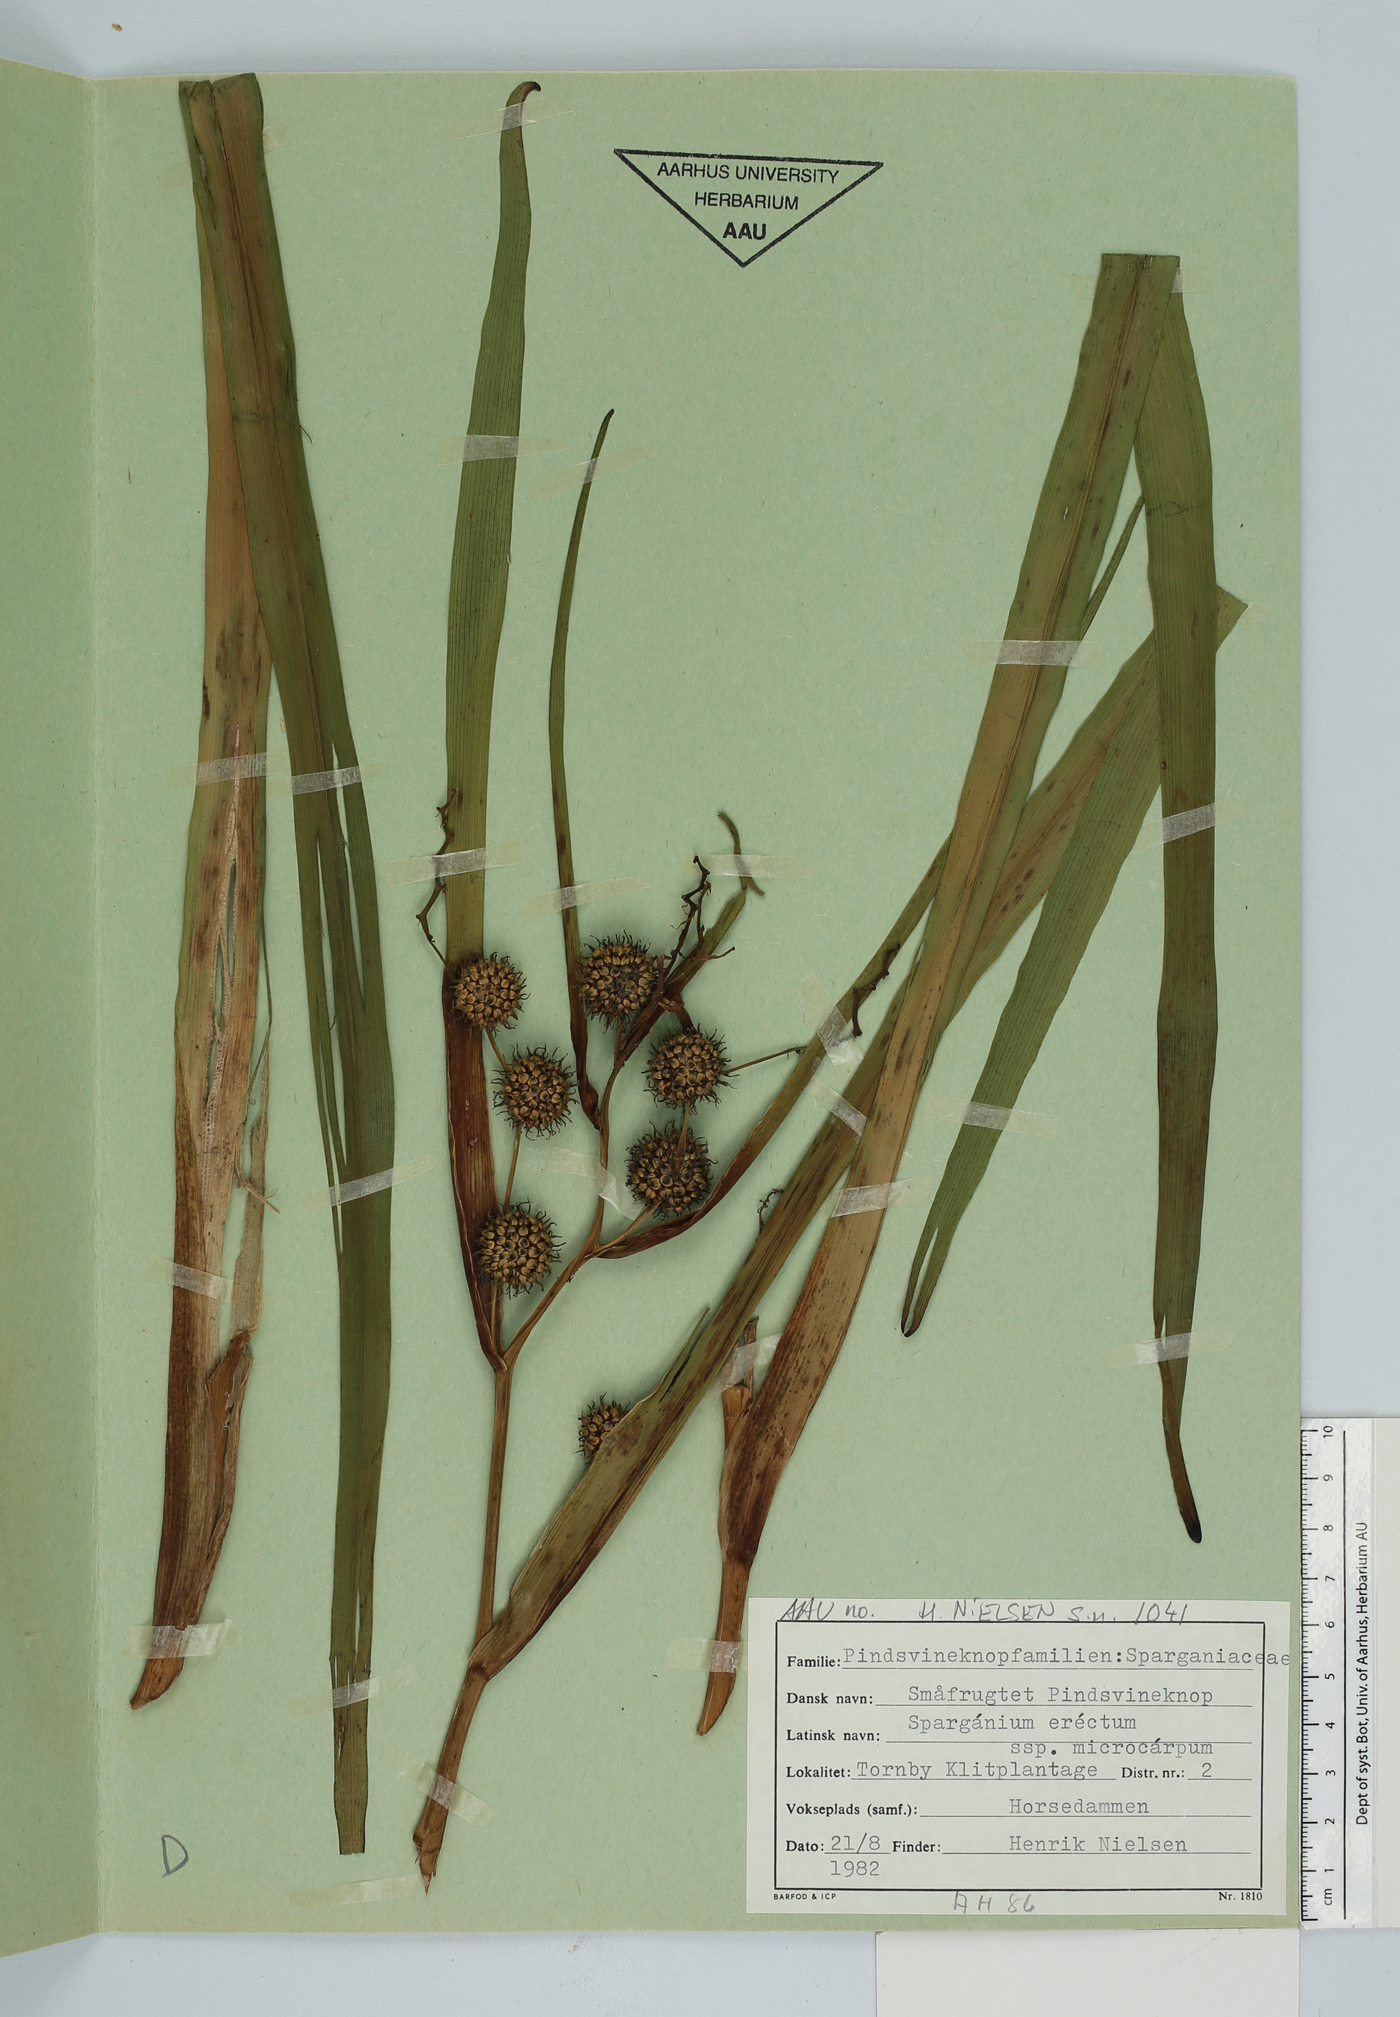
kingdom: Plantae
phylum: Tracheophyta
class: Liliopsida
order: Poales
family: Typhaceae
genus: Sparganium
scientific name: Sparganium erectum
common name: Branched bur-reed
